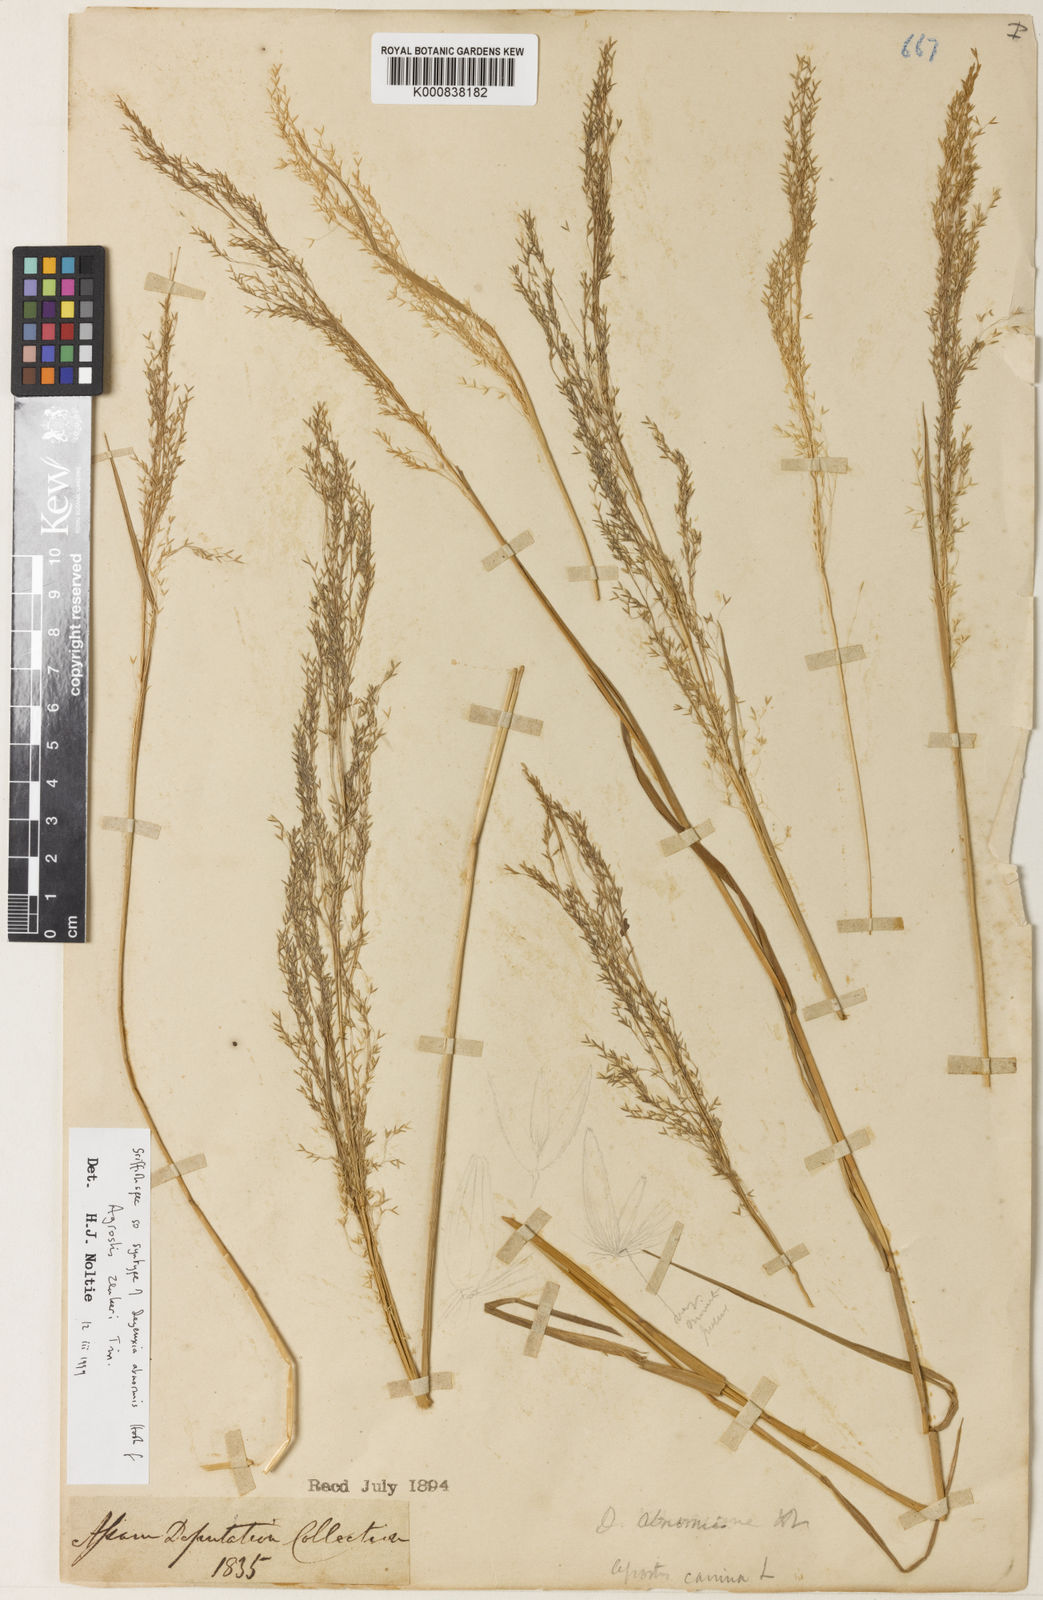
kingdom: Plantae
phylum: Tracheophyta
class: Liliopsida
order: Poales
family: Poaceae
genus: Calamagrostis
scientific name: Calamagrostis abnormis
